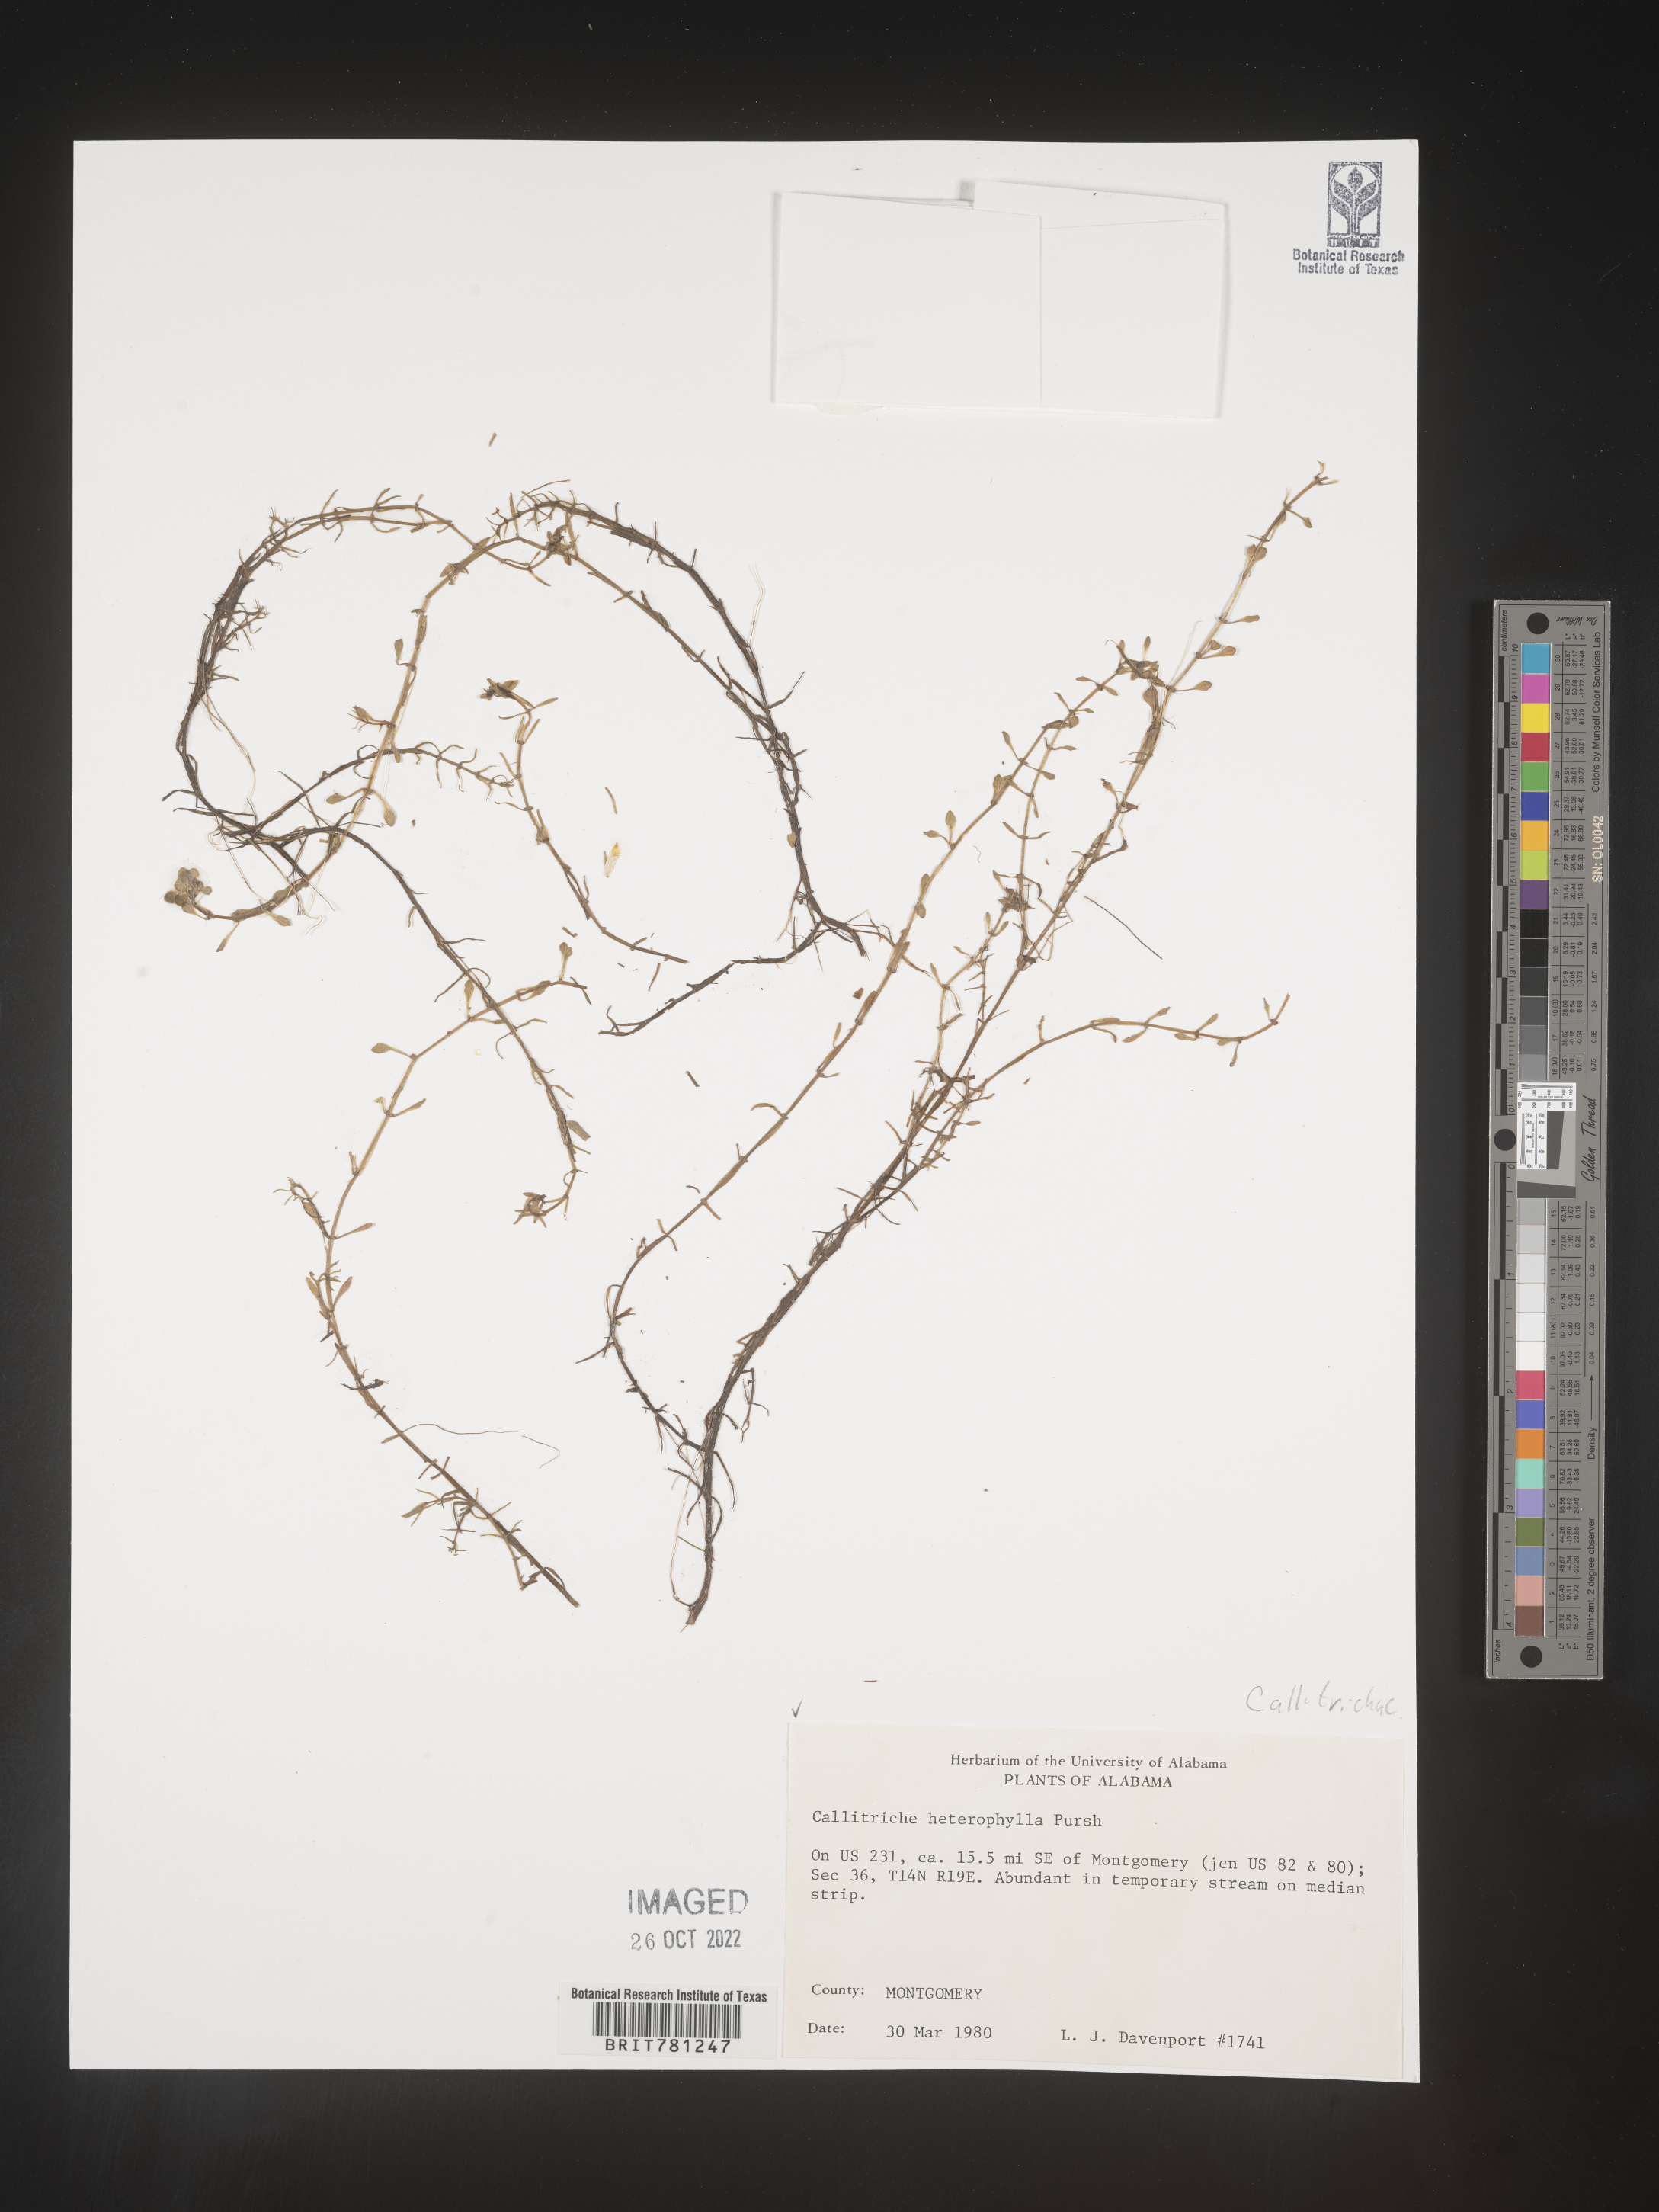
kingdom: Plantae
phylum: Tracheophyta
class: Magnoliopsida
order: Lamiales
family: Plantaginaceae
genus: Callitriche
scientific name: Callitriche heterophylla
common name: Two-headed water-starwort
